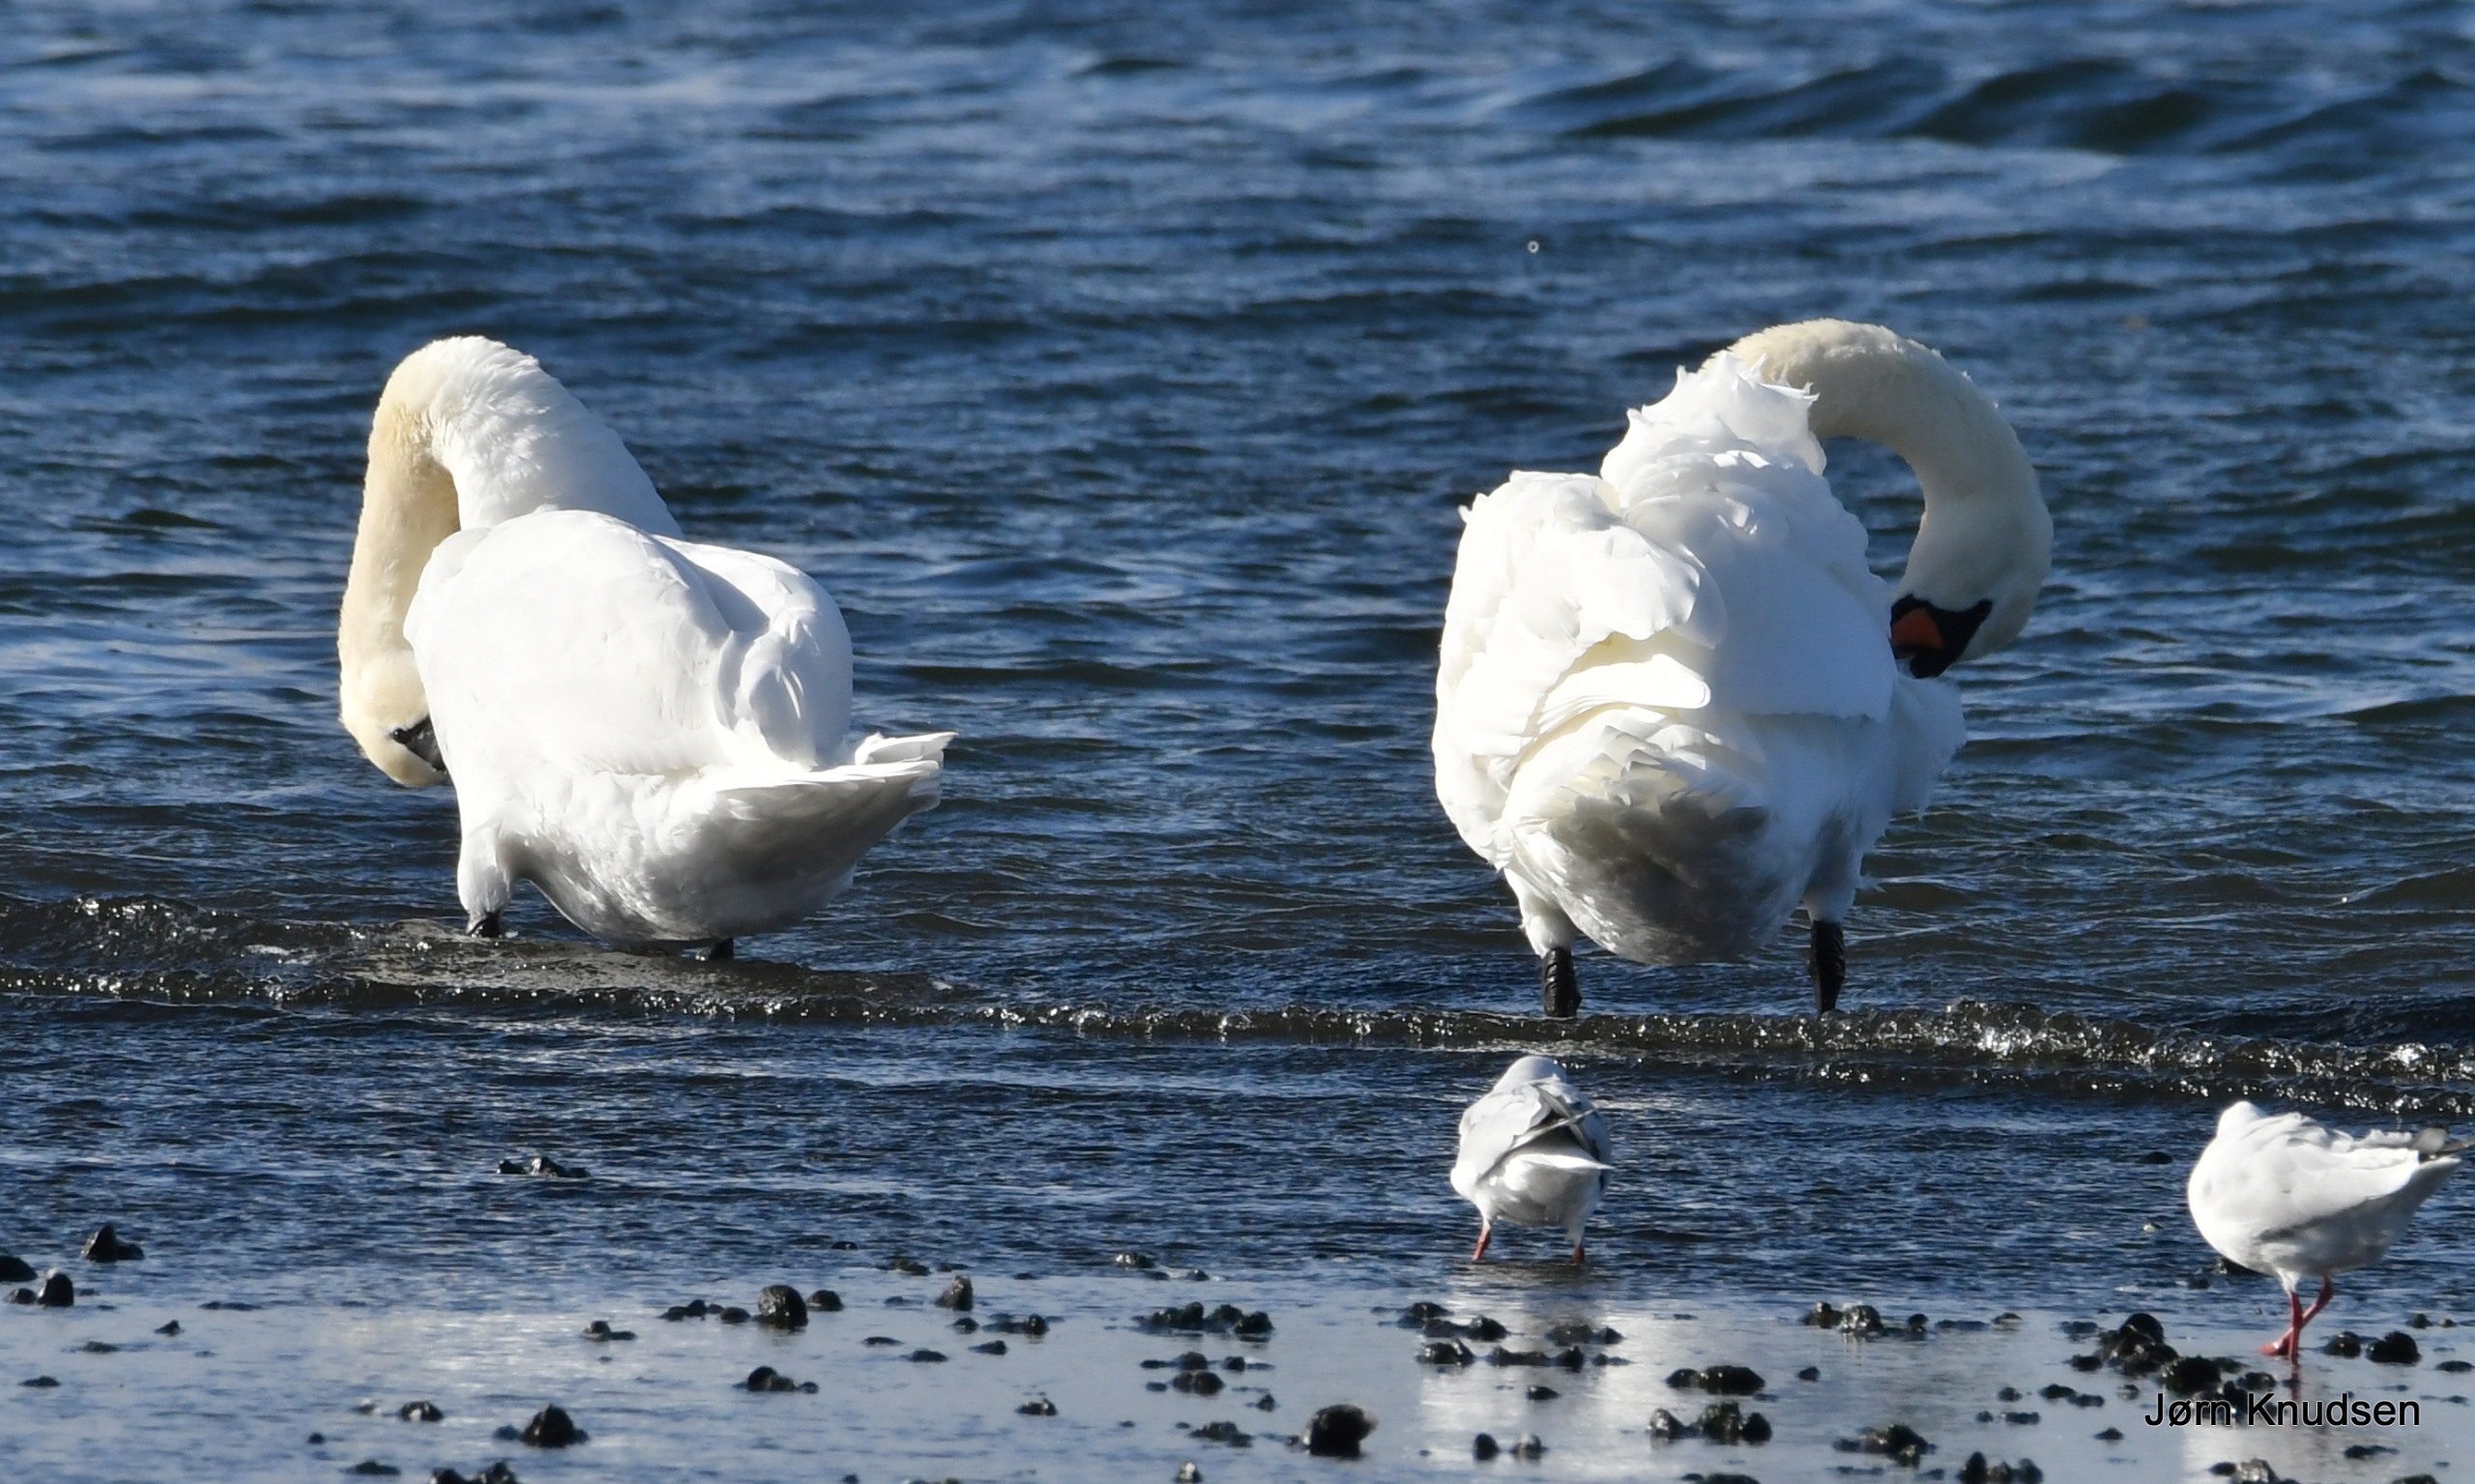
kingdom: Animalia
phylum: Chordata
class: Aves
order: Anseriformes
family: Anatidae
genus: Cygnus
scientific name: Cygnus olor
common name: Knopsvane
